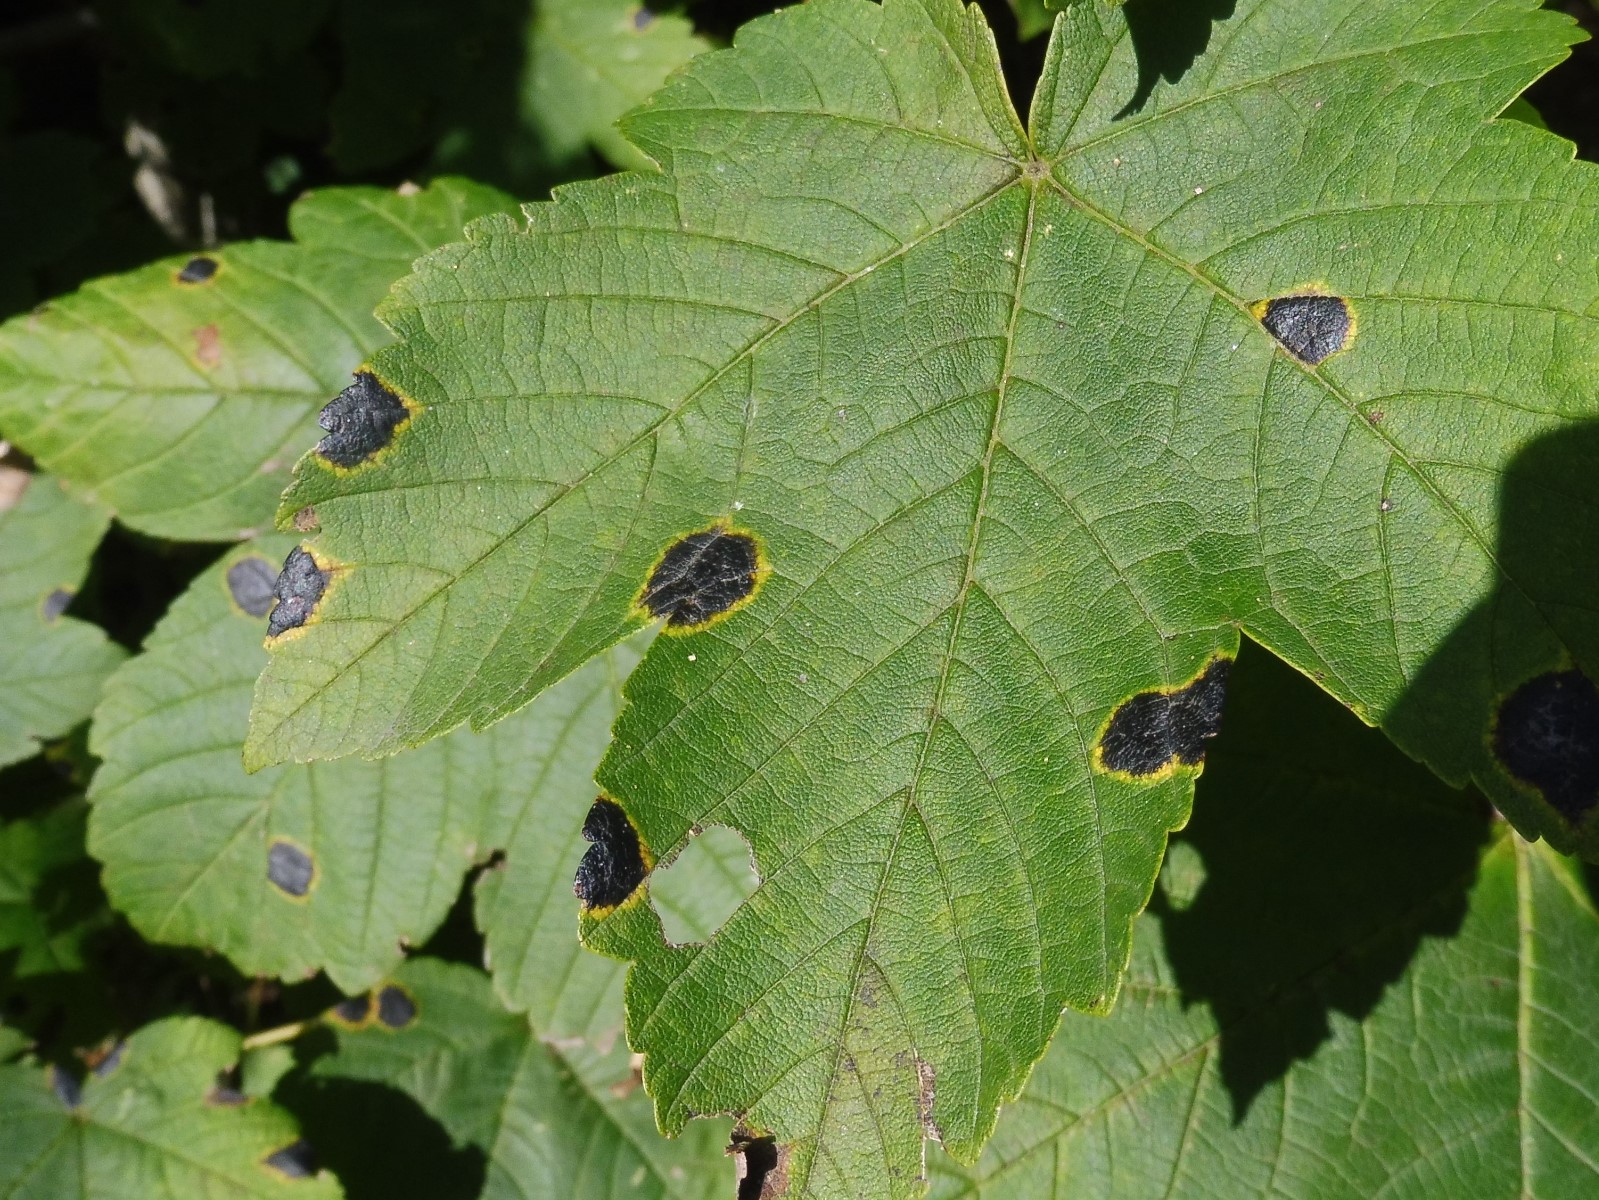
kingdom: Fungi
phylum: Ascomycota
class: Leotiomycetes
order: Rhytismatales
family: Rhytismataceae
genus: Rhytisma
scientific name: Rhytisma acerinum
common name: ahorn-rynkeplet
